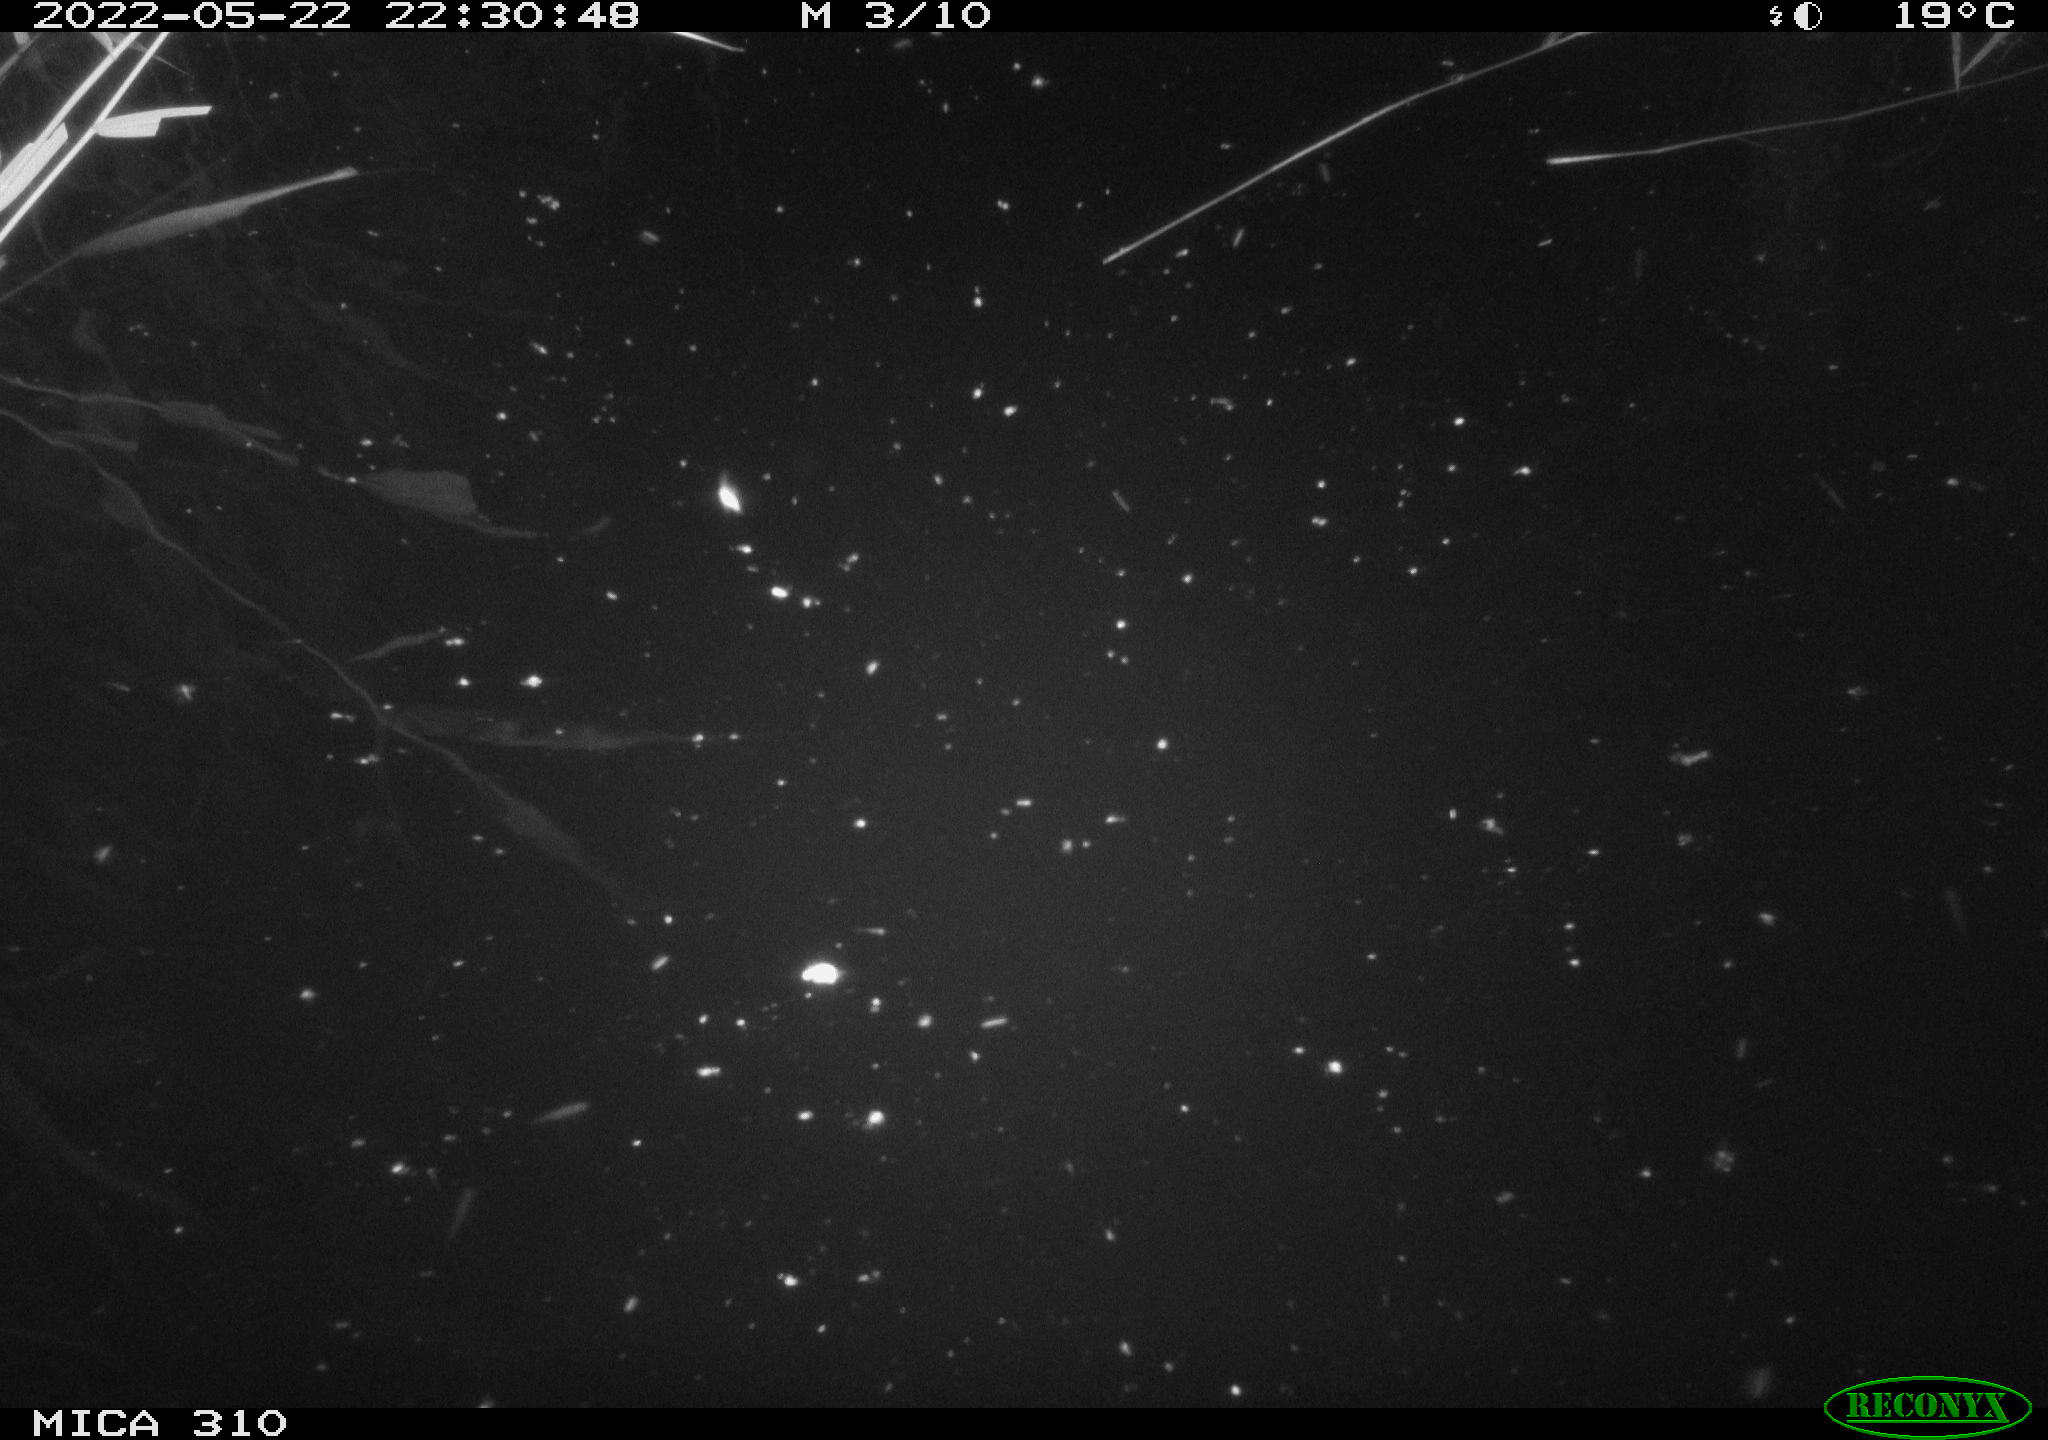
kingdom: Animalia
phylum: Chordata
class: Aves
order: Anseriformes
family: Anatidae
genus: Anas
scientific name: Anas platyrhynchos
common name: Mallard
